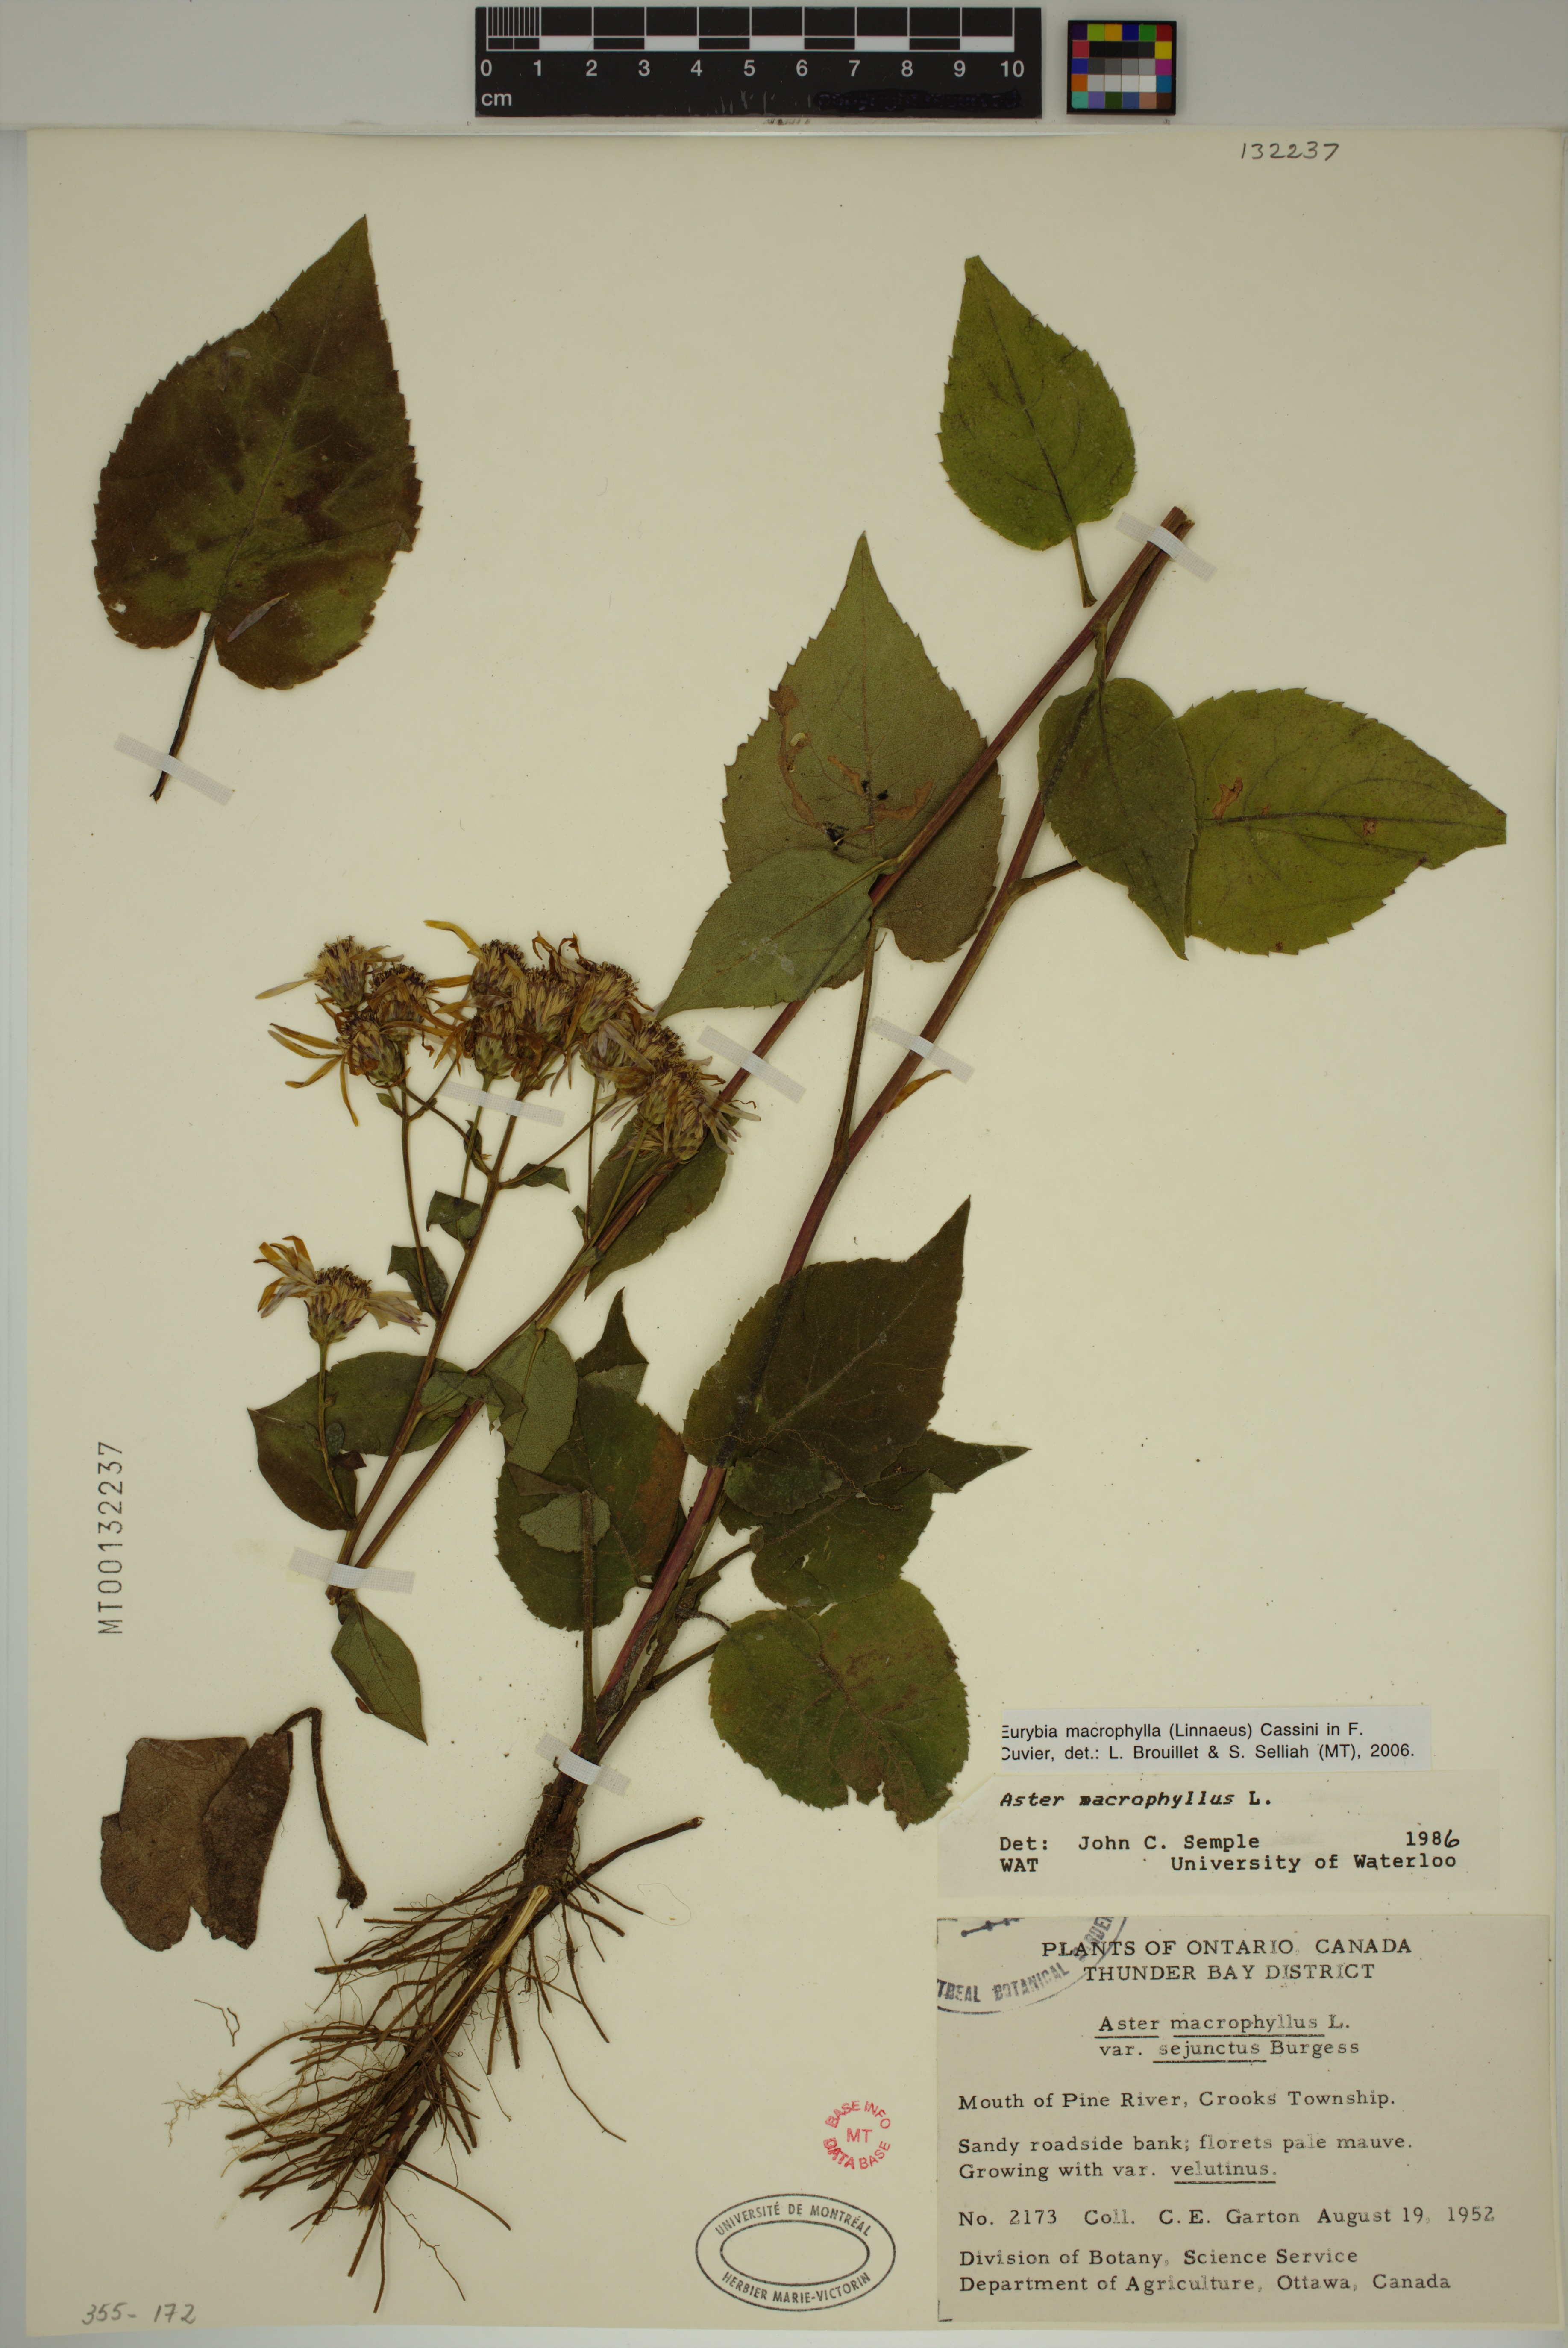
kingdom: Plantae
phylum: Tracheophyta
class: Magnoliopsida
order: Asterales
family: Asteraceae
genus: Eurybia
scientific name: Eurybia macrophylla
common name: Big-leaved aster
